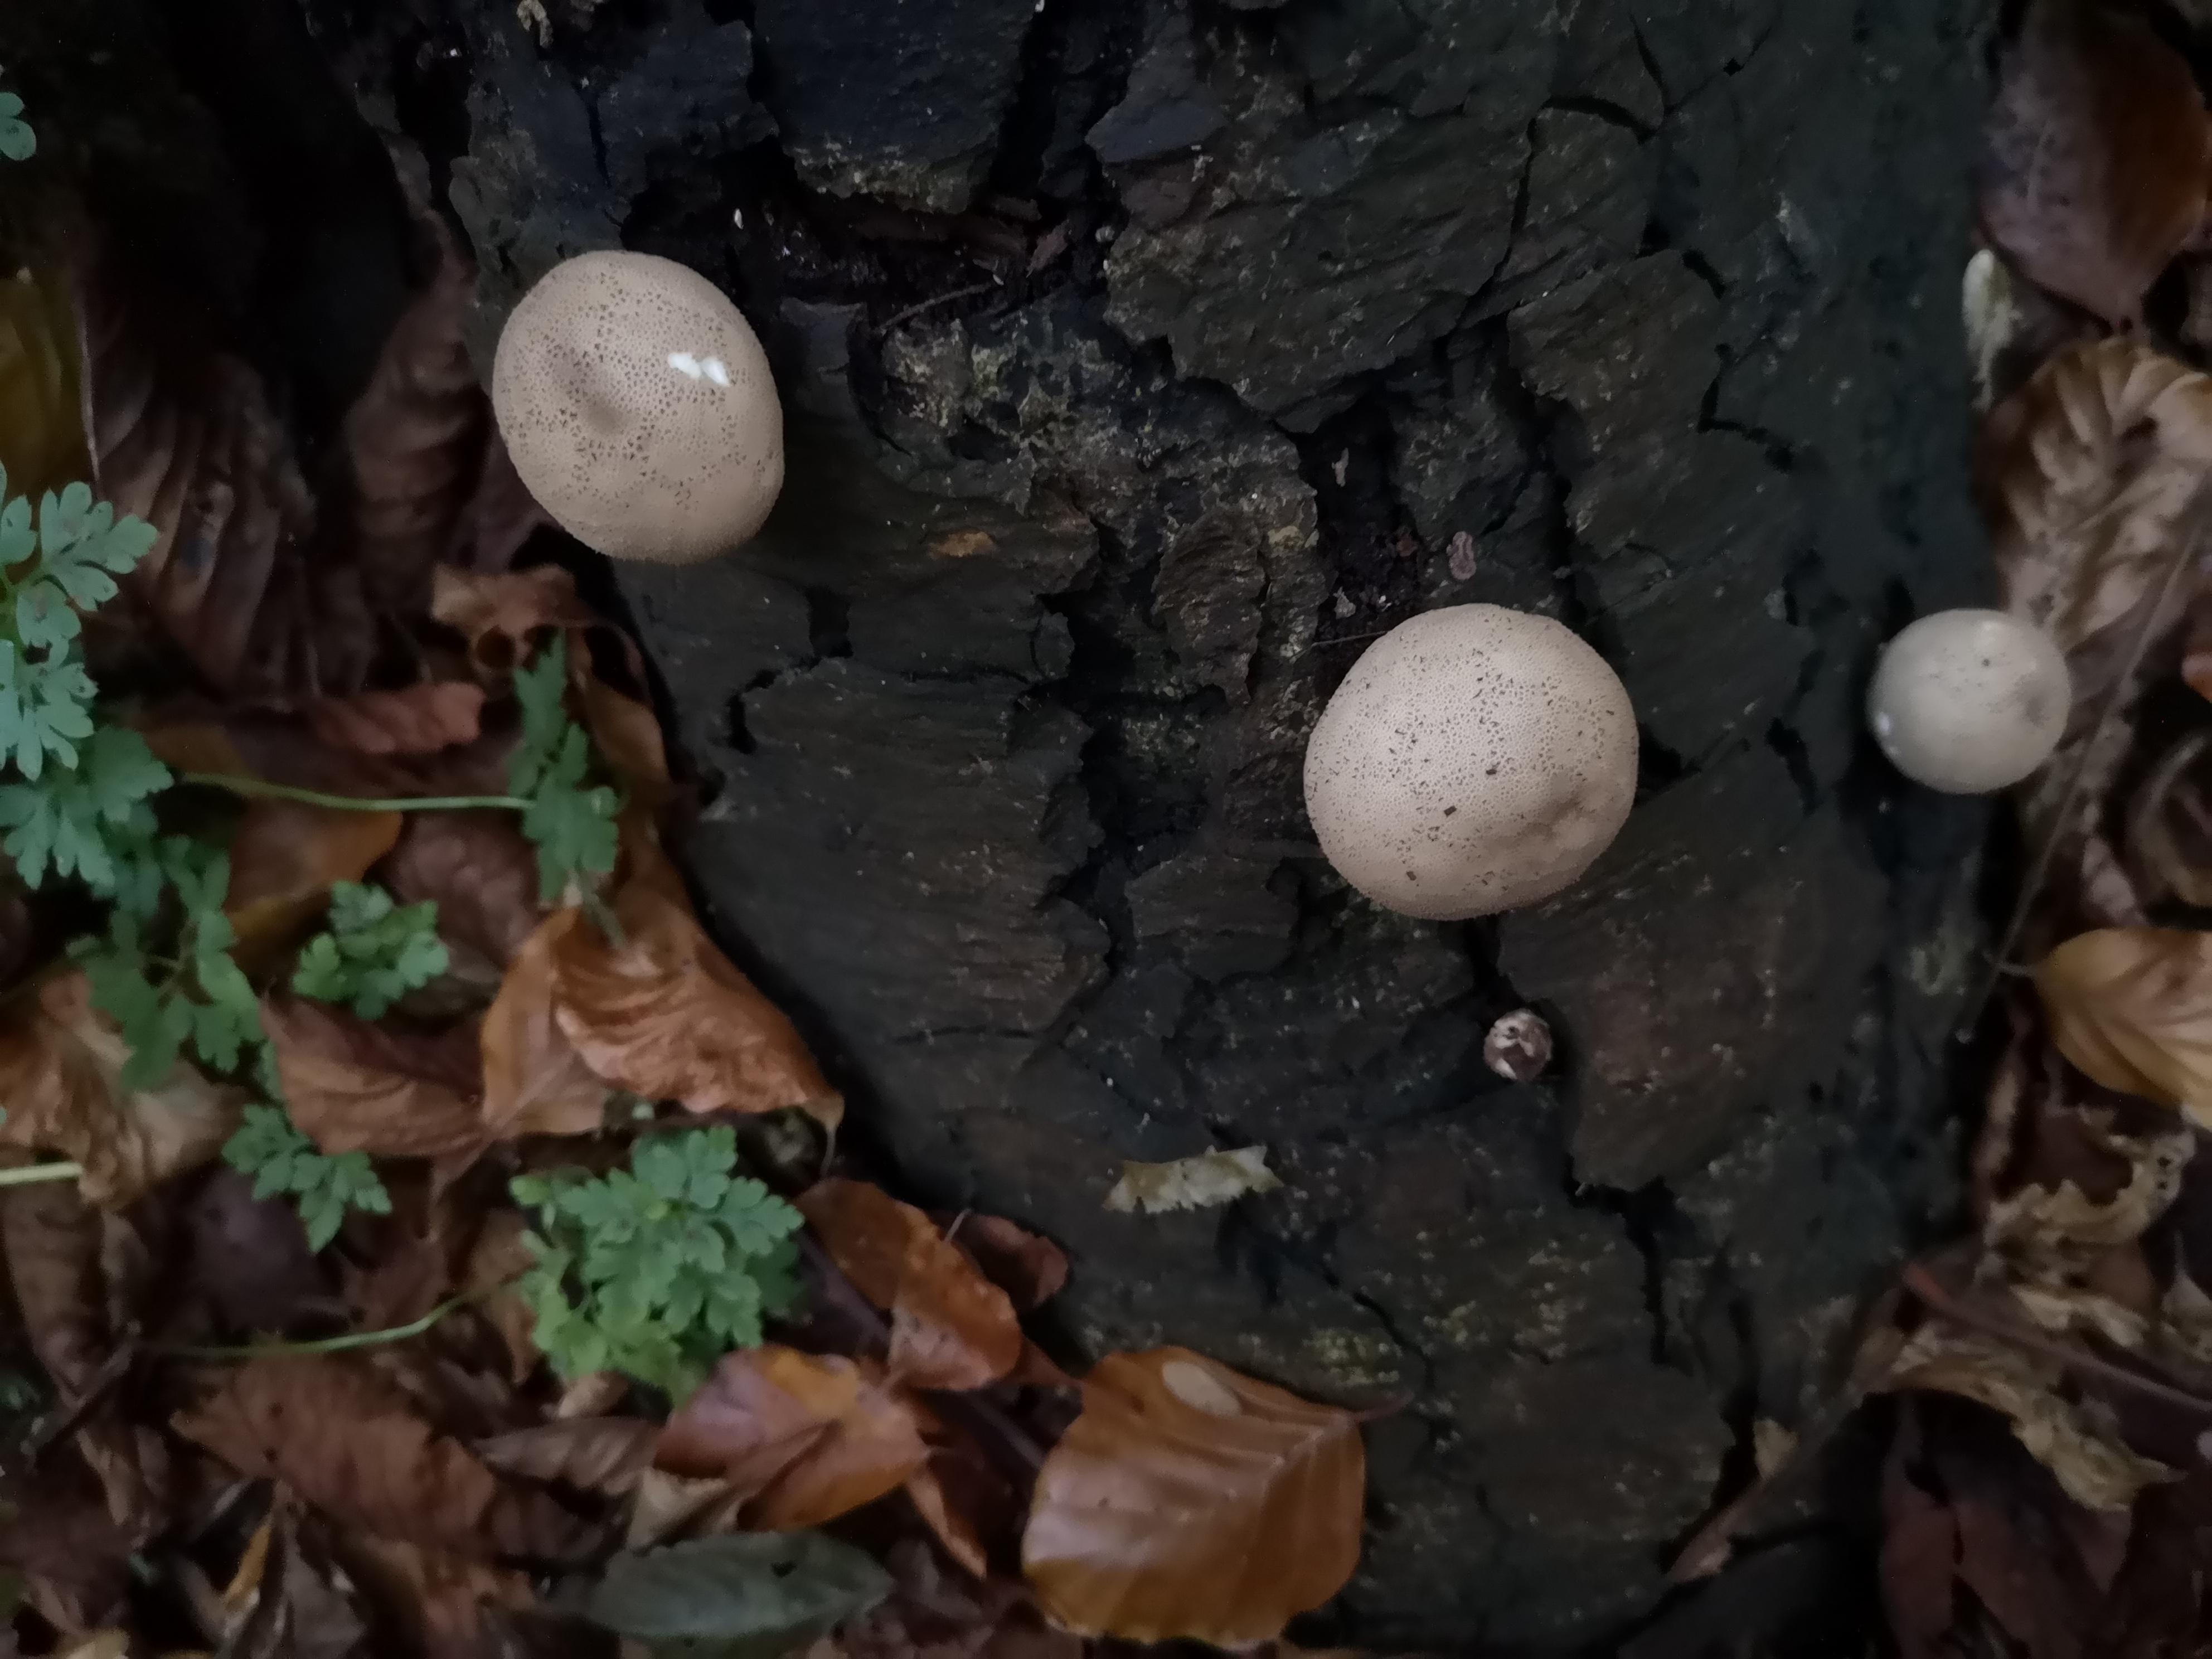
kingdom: Fungi
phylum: Basidiomycota
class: Agaricomycetes
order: Agaricales
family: Lycoperdaceae
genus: Apioperdon
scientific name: Apioperdon pyriforme
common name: pære-støvbold
